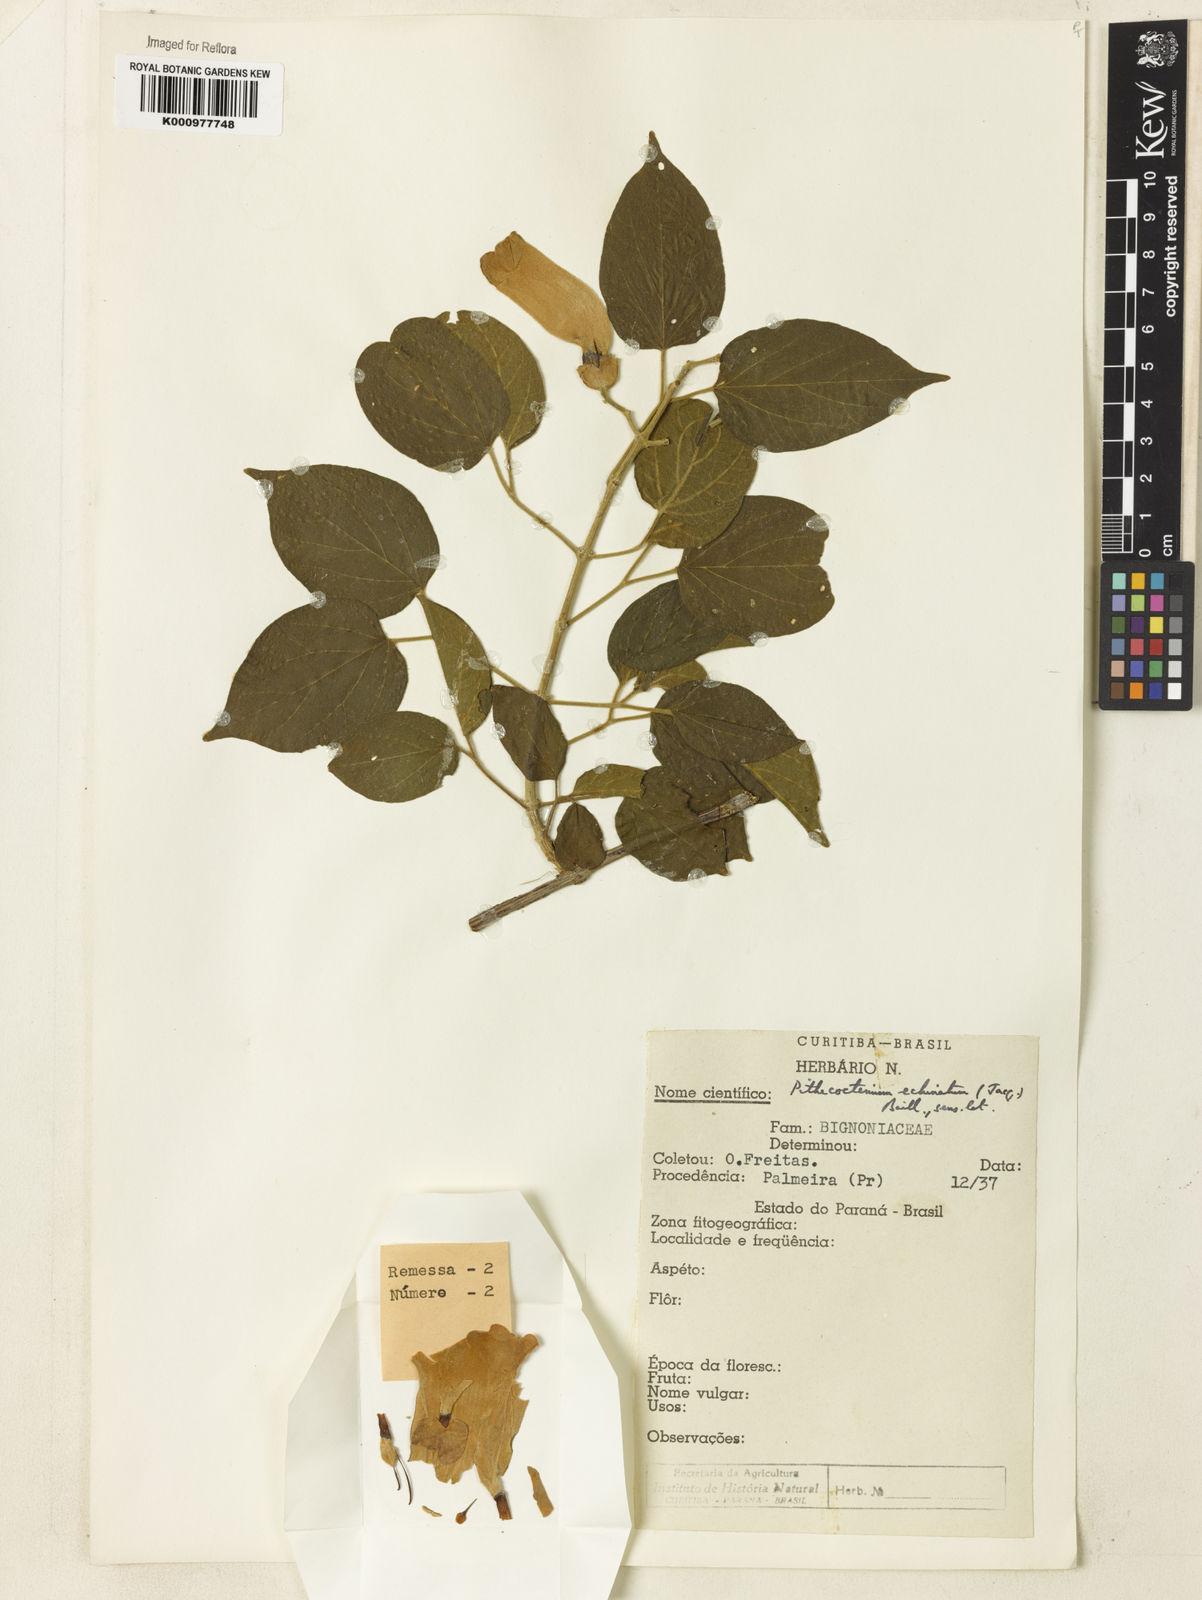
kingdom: Plantae
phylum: Tracheophyta
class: Magnoliopsida
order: Lamiales
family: Bignoniaceae
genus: Amphilophium
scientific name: Amphilophium crucigerum
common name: Monkey comb
